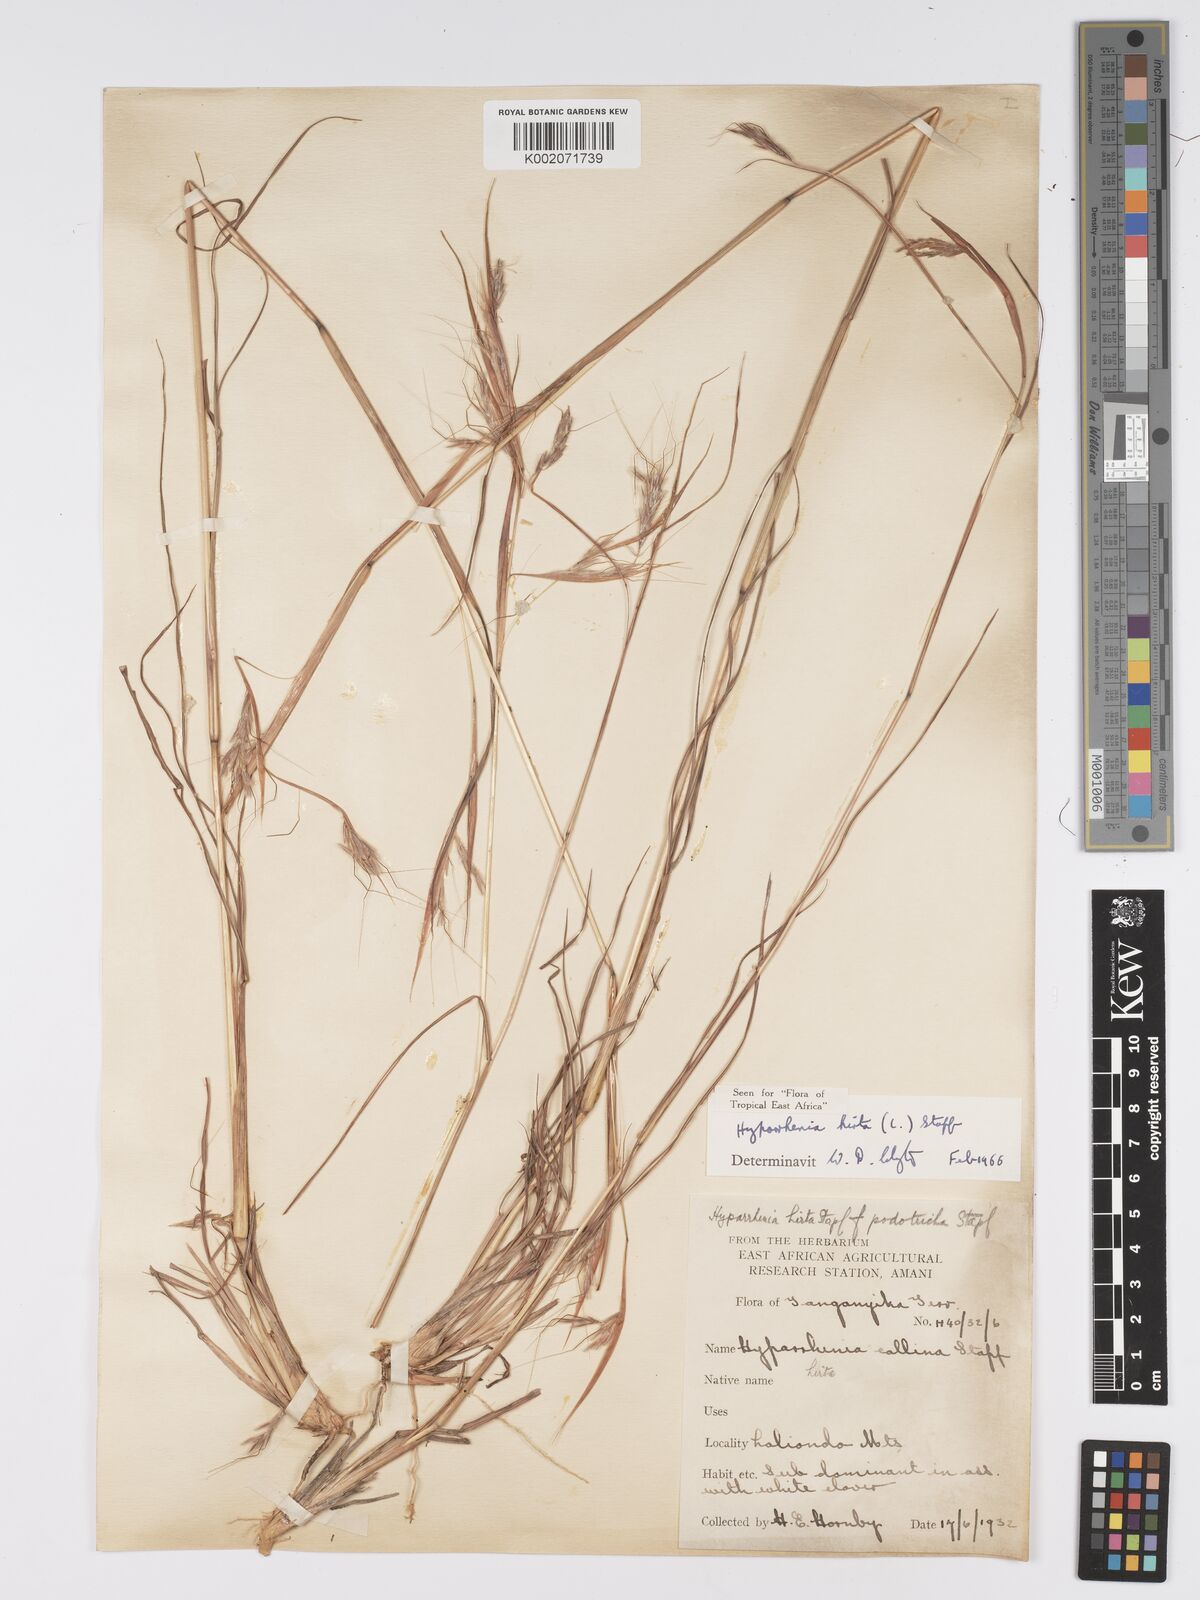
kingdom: Plantae
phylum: Tracheophyta
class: Liliopsida
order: Poales
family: Poaceae
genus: Hyparrhenia
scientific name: Hyparrhenia hirta
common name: Thatching grass
